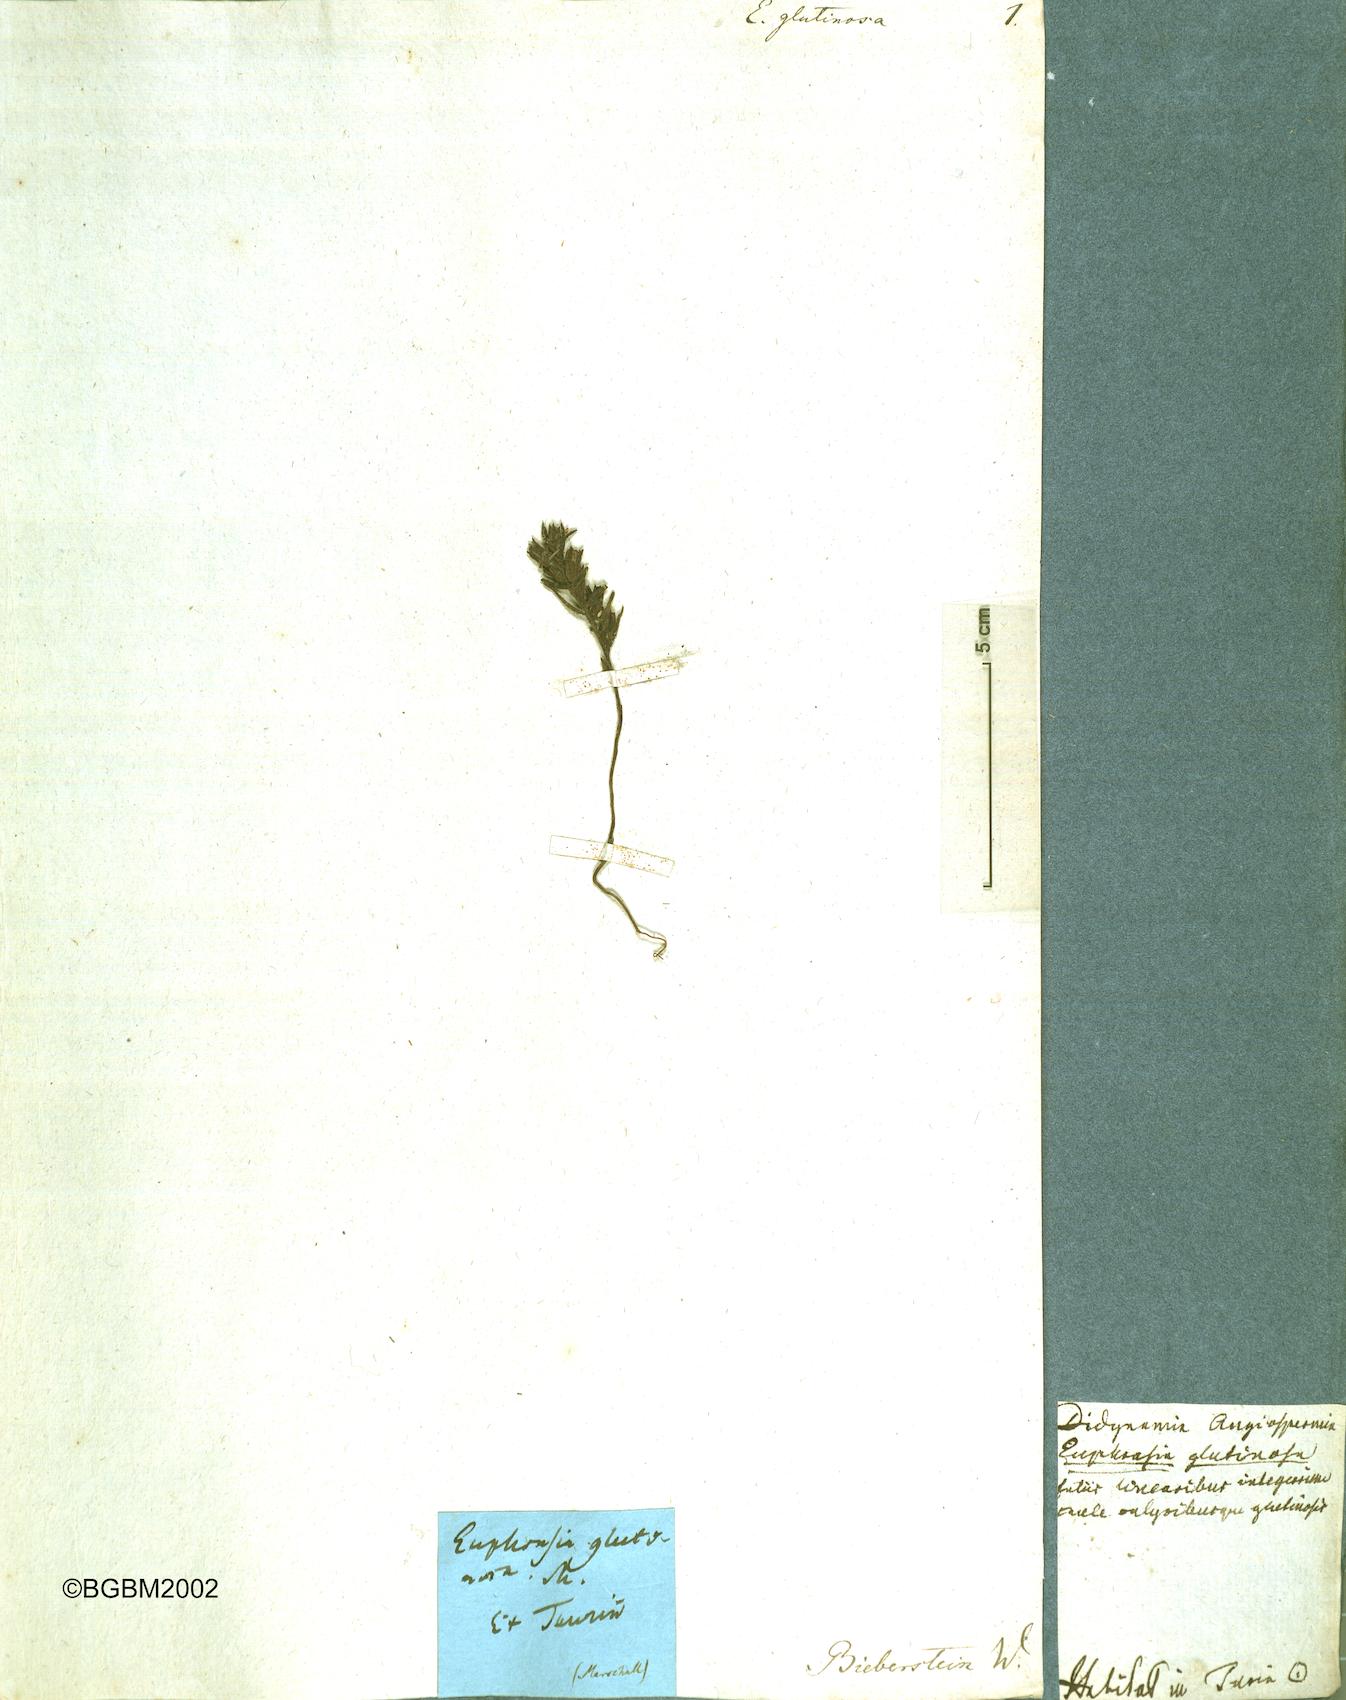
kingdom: Plantae
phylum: Tracheophyta
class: Magnoliopsida
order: Lamiales
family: Orobanchaceae
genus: Odontites
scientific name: Odontites glutinosus
